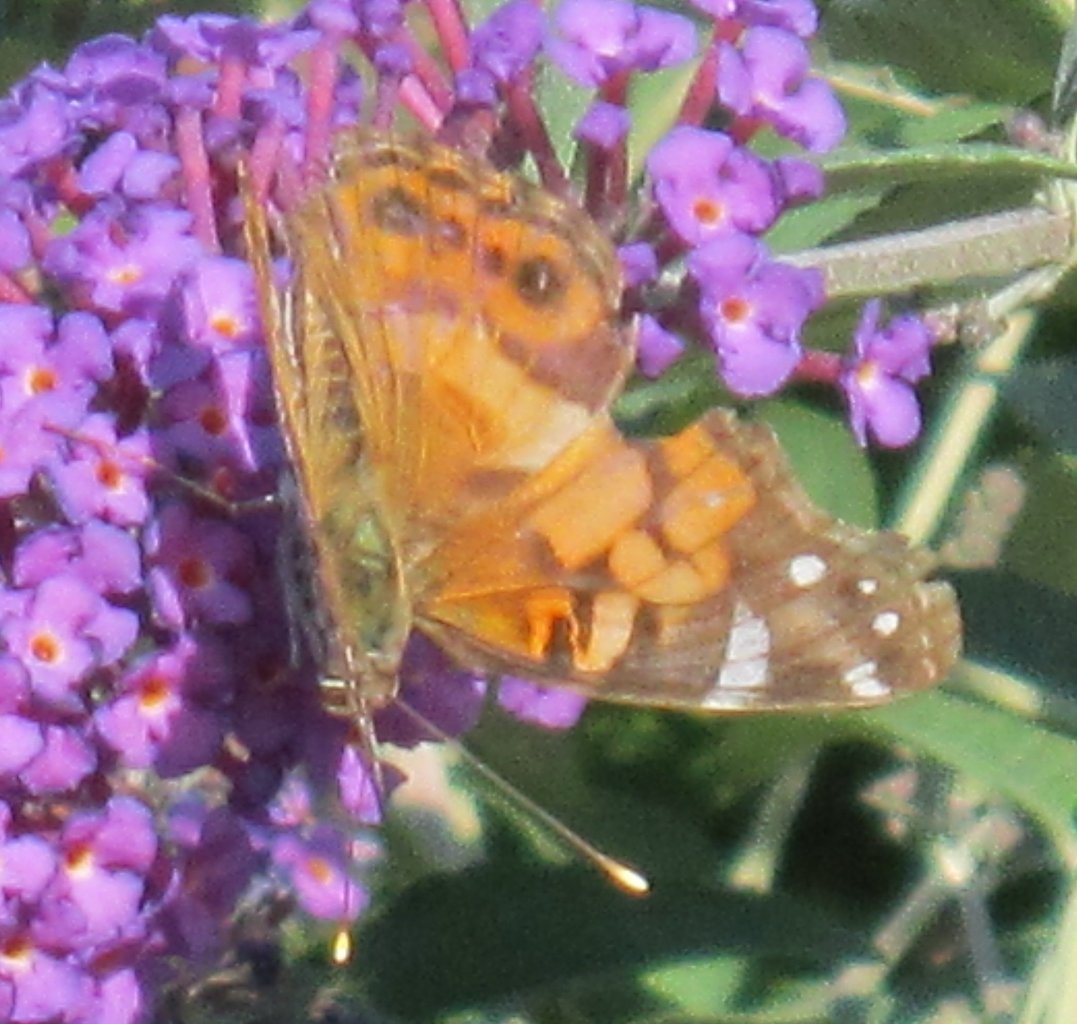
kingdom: Animalia
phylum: Arthropoda
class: Insecta
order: Lepidoptera
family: Nymphalidae
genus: Vanessa
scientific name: Vanessa virginiensis
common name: American Lady
